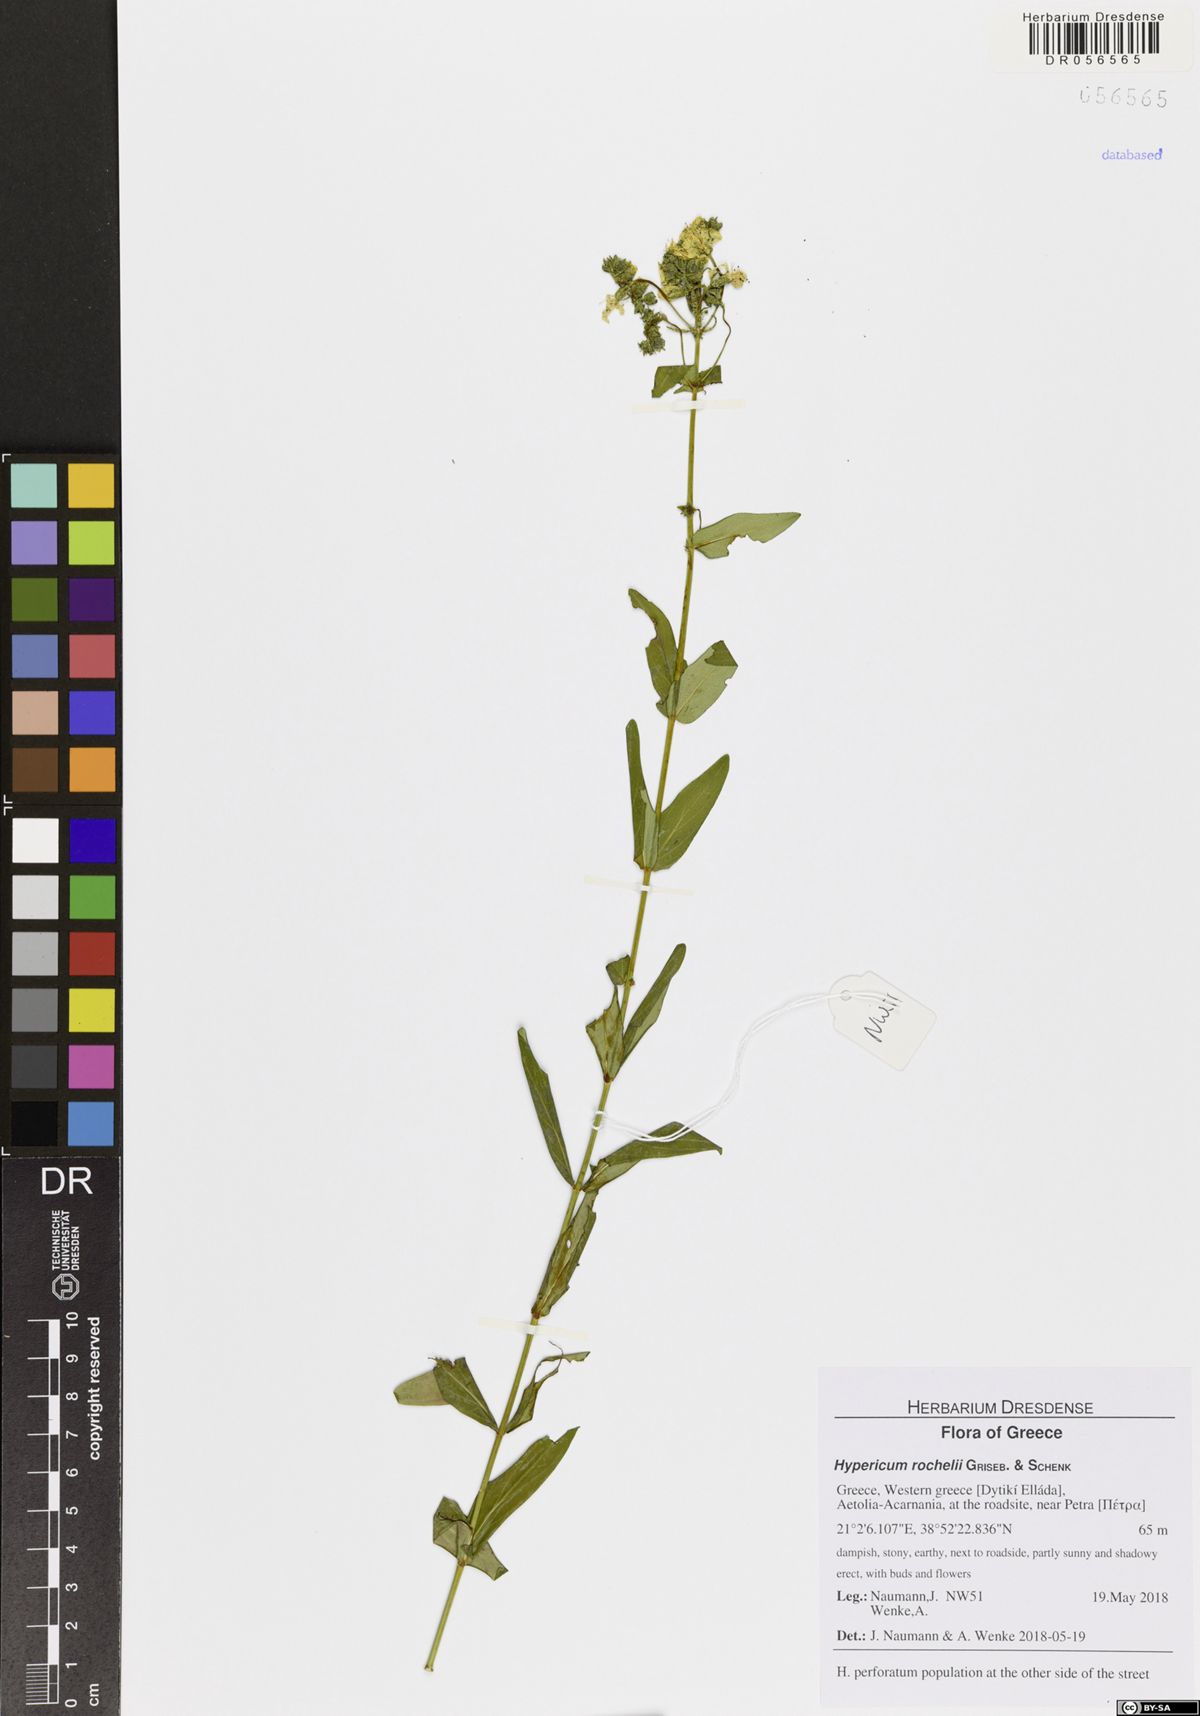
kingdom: Plantae
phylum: Tracheophyta
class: Magnoliopsida
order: Malpighiales
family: Hypericaceae
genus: Hypericum
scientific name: Hypericum rochelii
